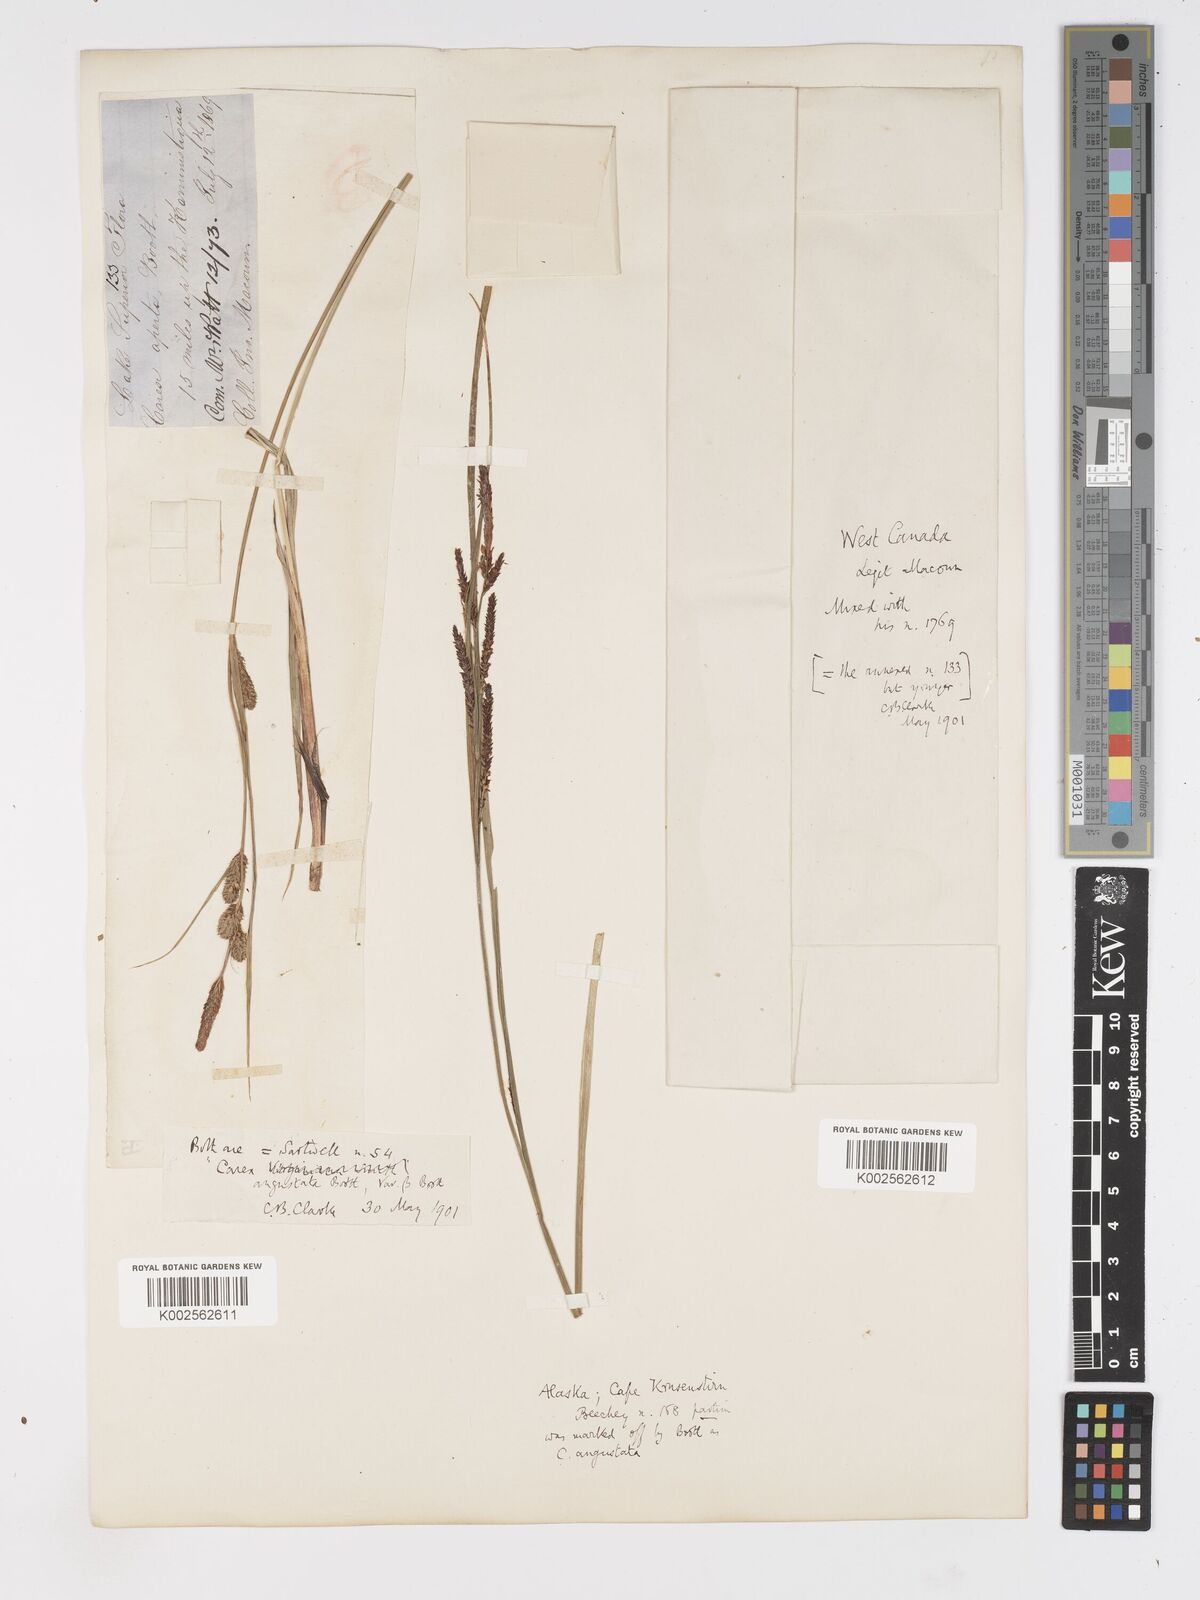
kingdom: Plantae
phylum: Tracheophyta
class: Liliopsida
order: Poales
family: Cyperaceae
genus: Carex
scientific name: Carex stricta
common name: Hummock sedge
